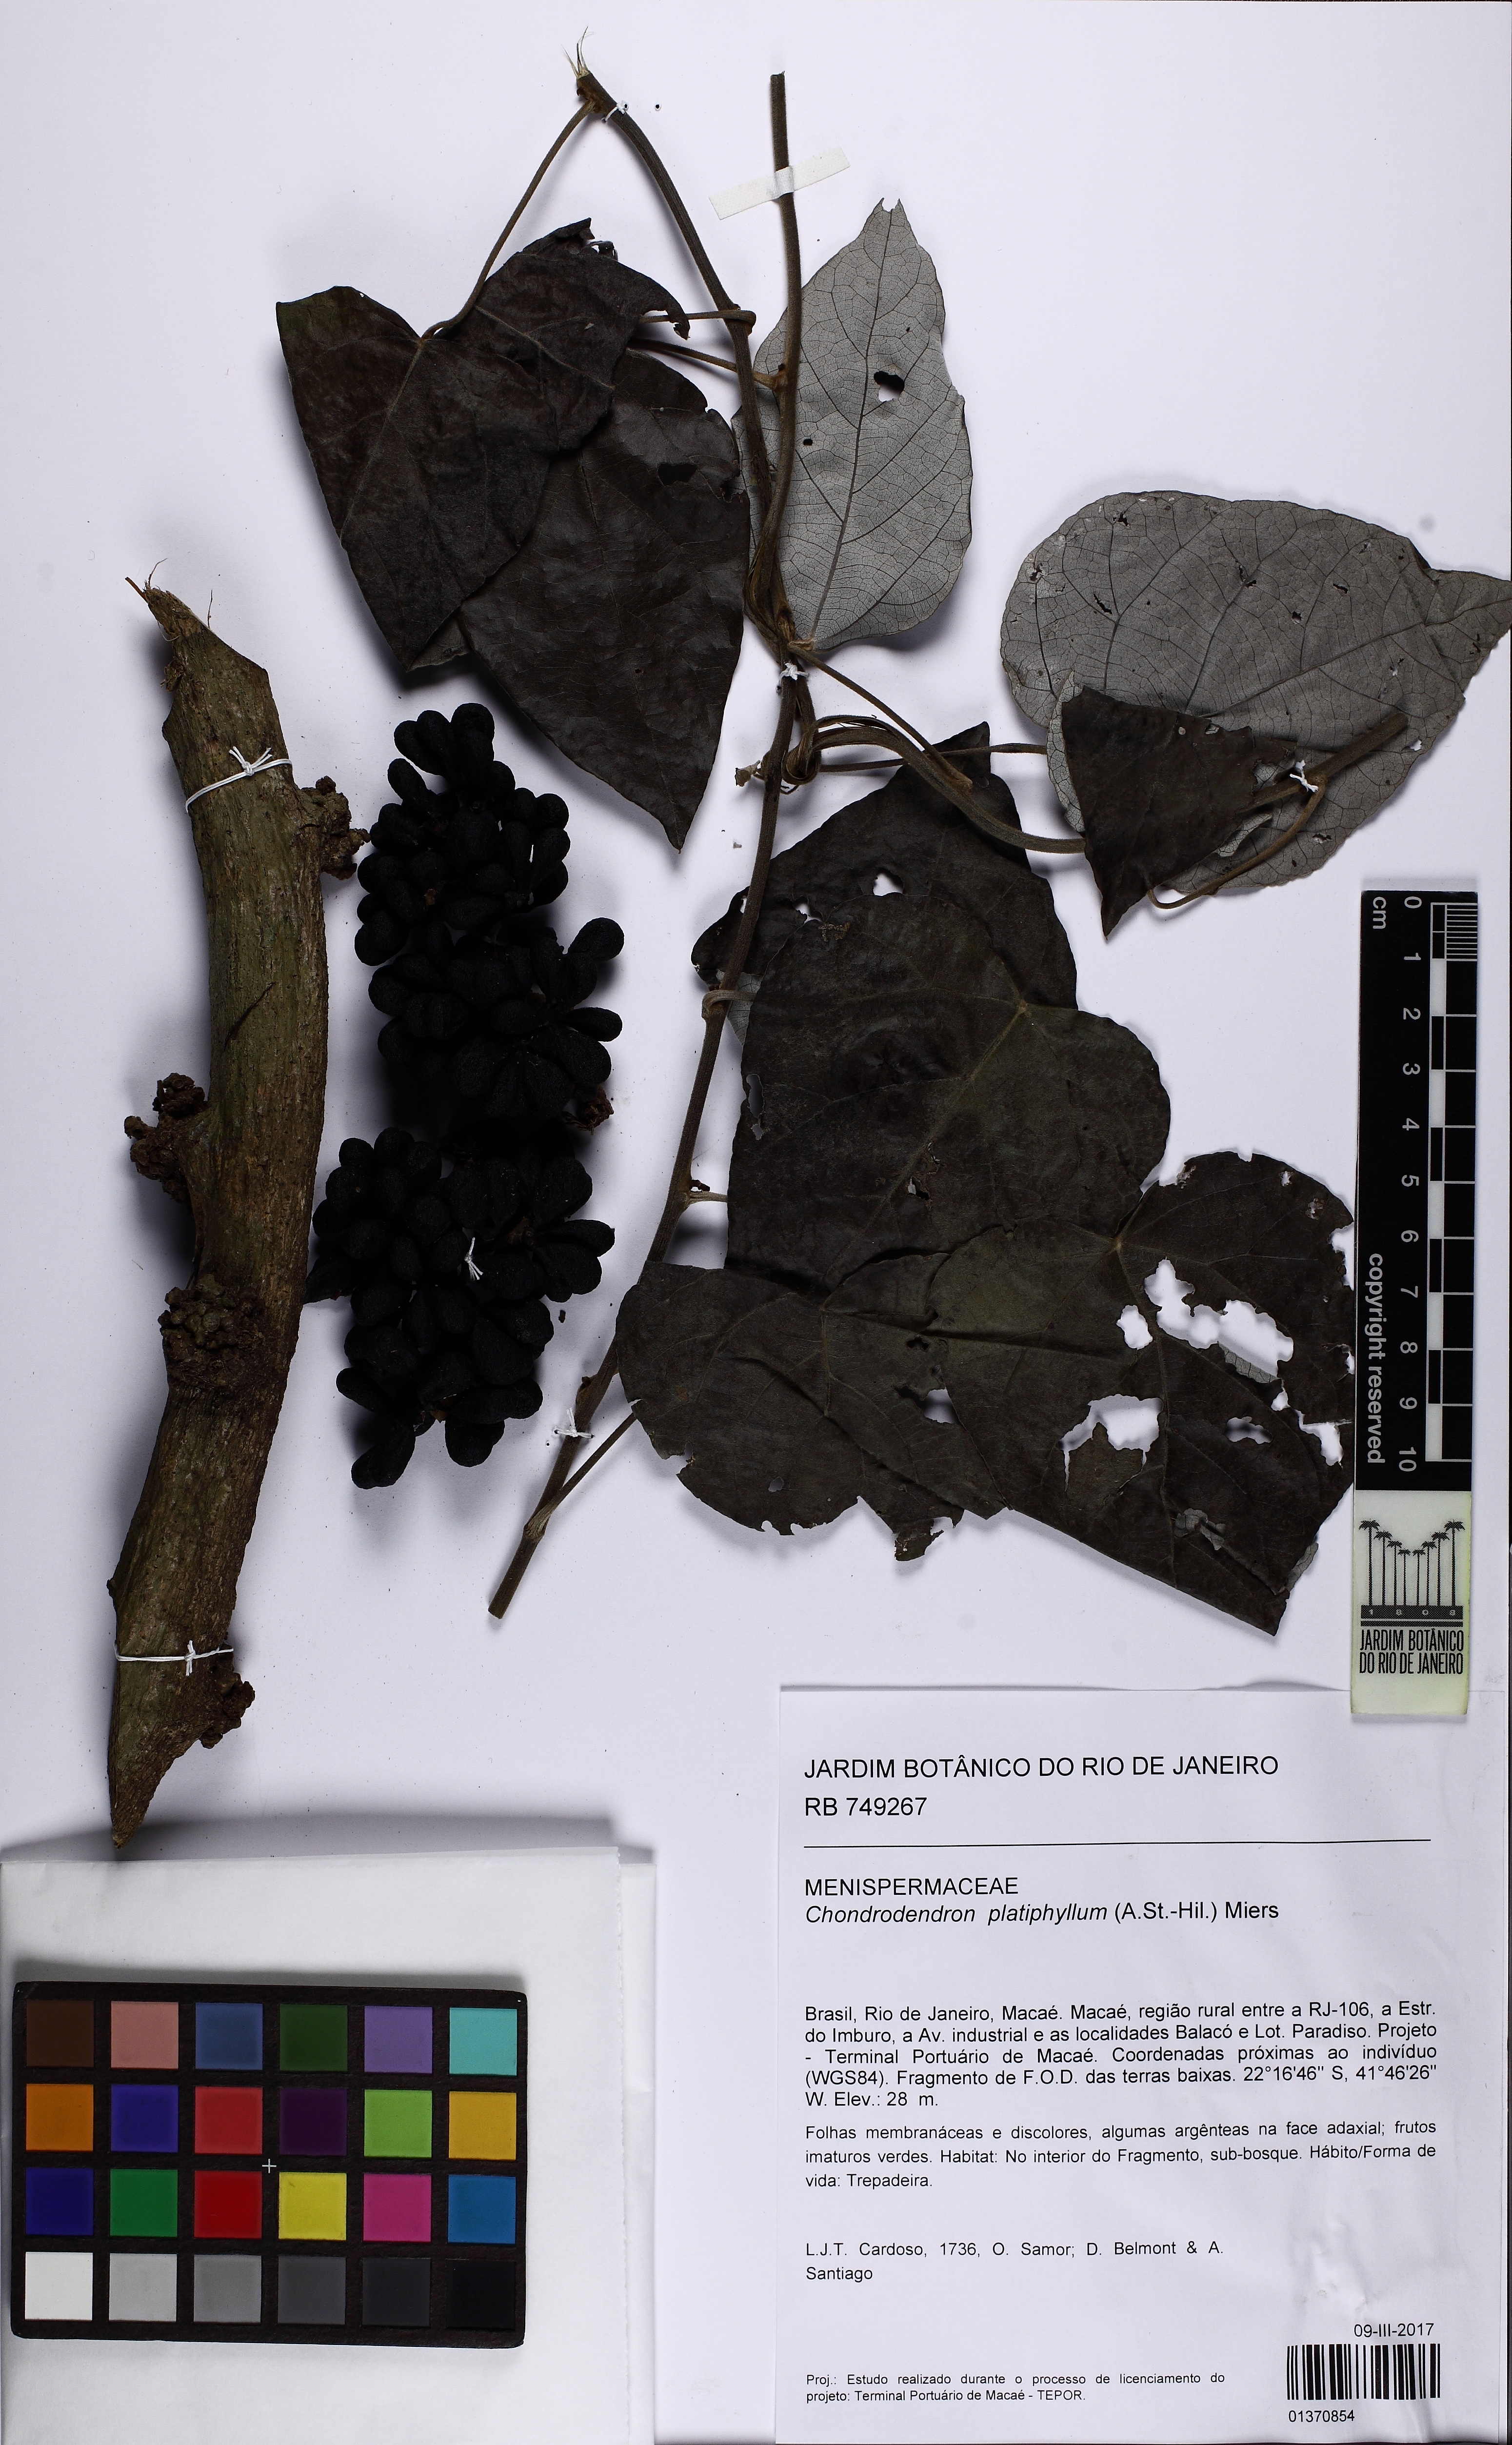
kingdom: Plantae
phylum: Tracheophyta
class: Magnoliopsida
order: Ranunculales
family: Menispermaceae
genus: Chondrodendron
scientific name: Chondrodendron platyphyllum
